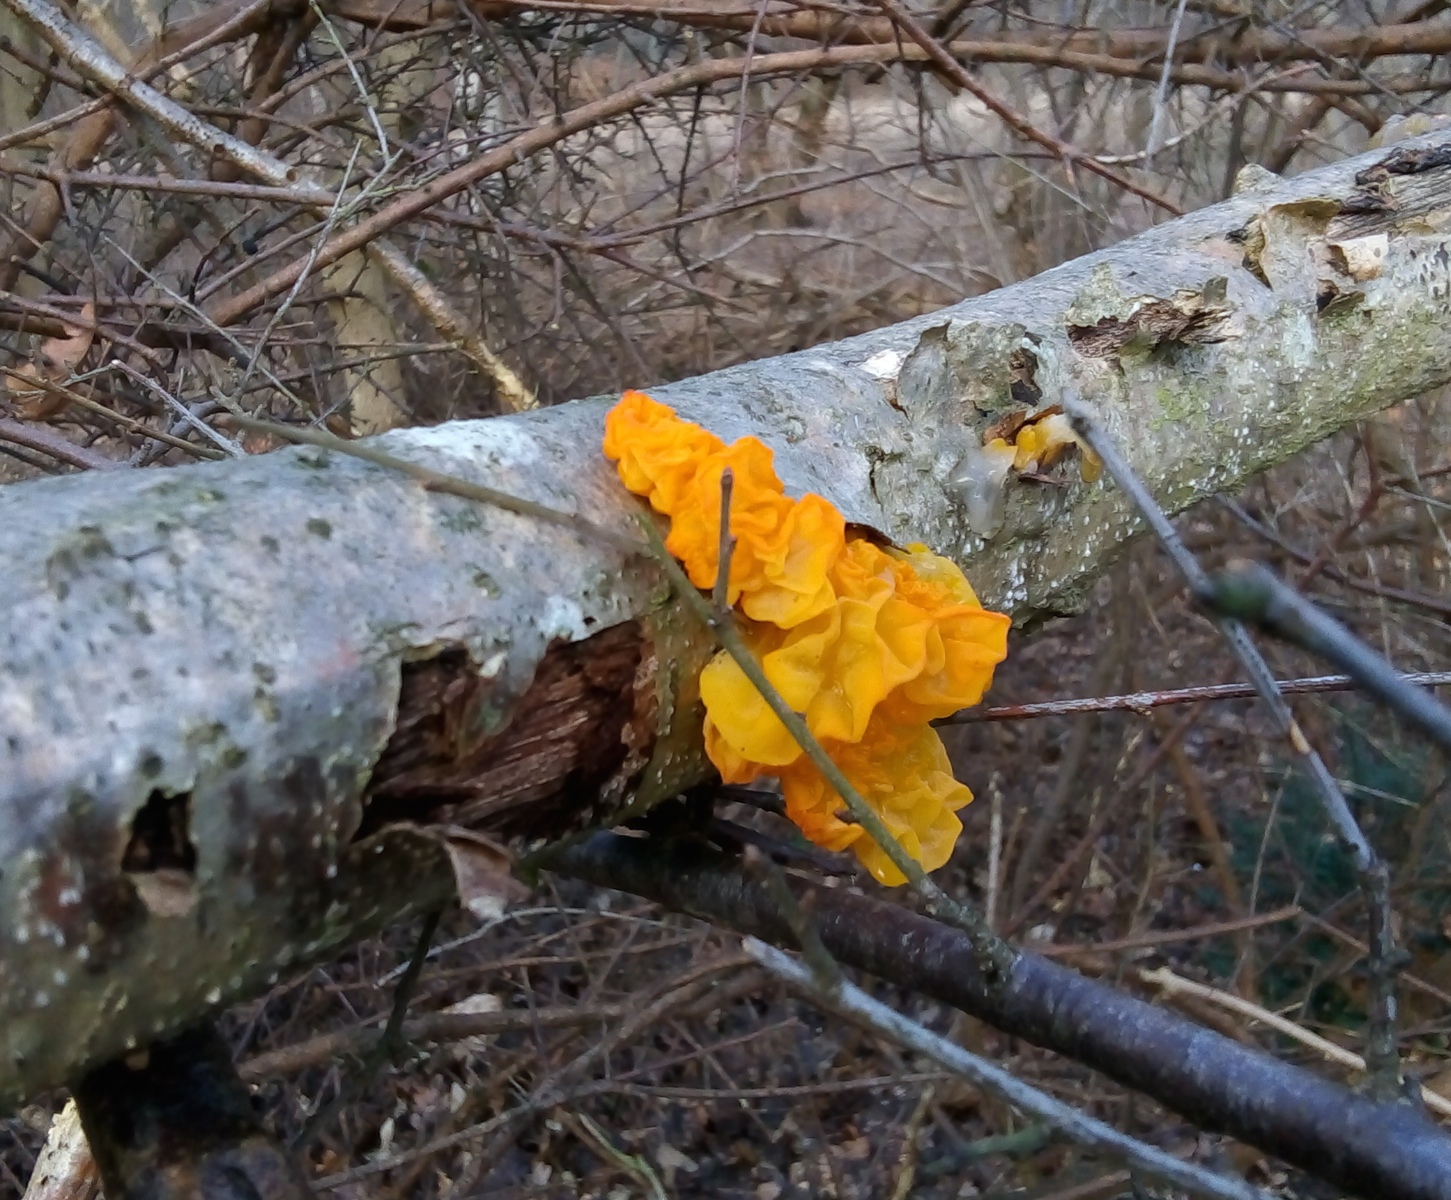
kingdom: Fungi
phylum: Basidiomycota
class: Tremellomycetes
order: Tremellales
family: Tremellaceae
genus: Tremella
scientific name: Tremella mesenterica
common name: gul bævresvamp
